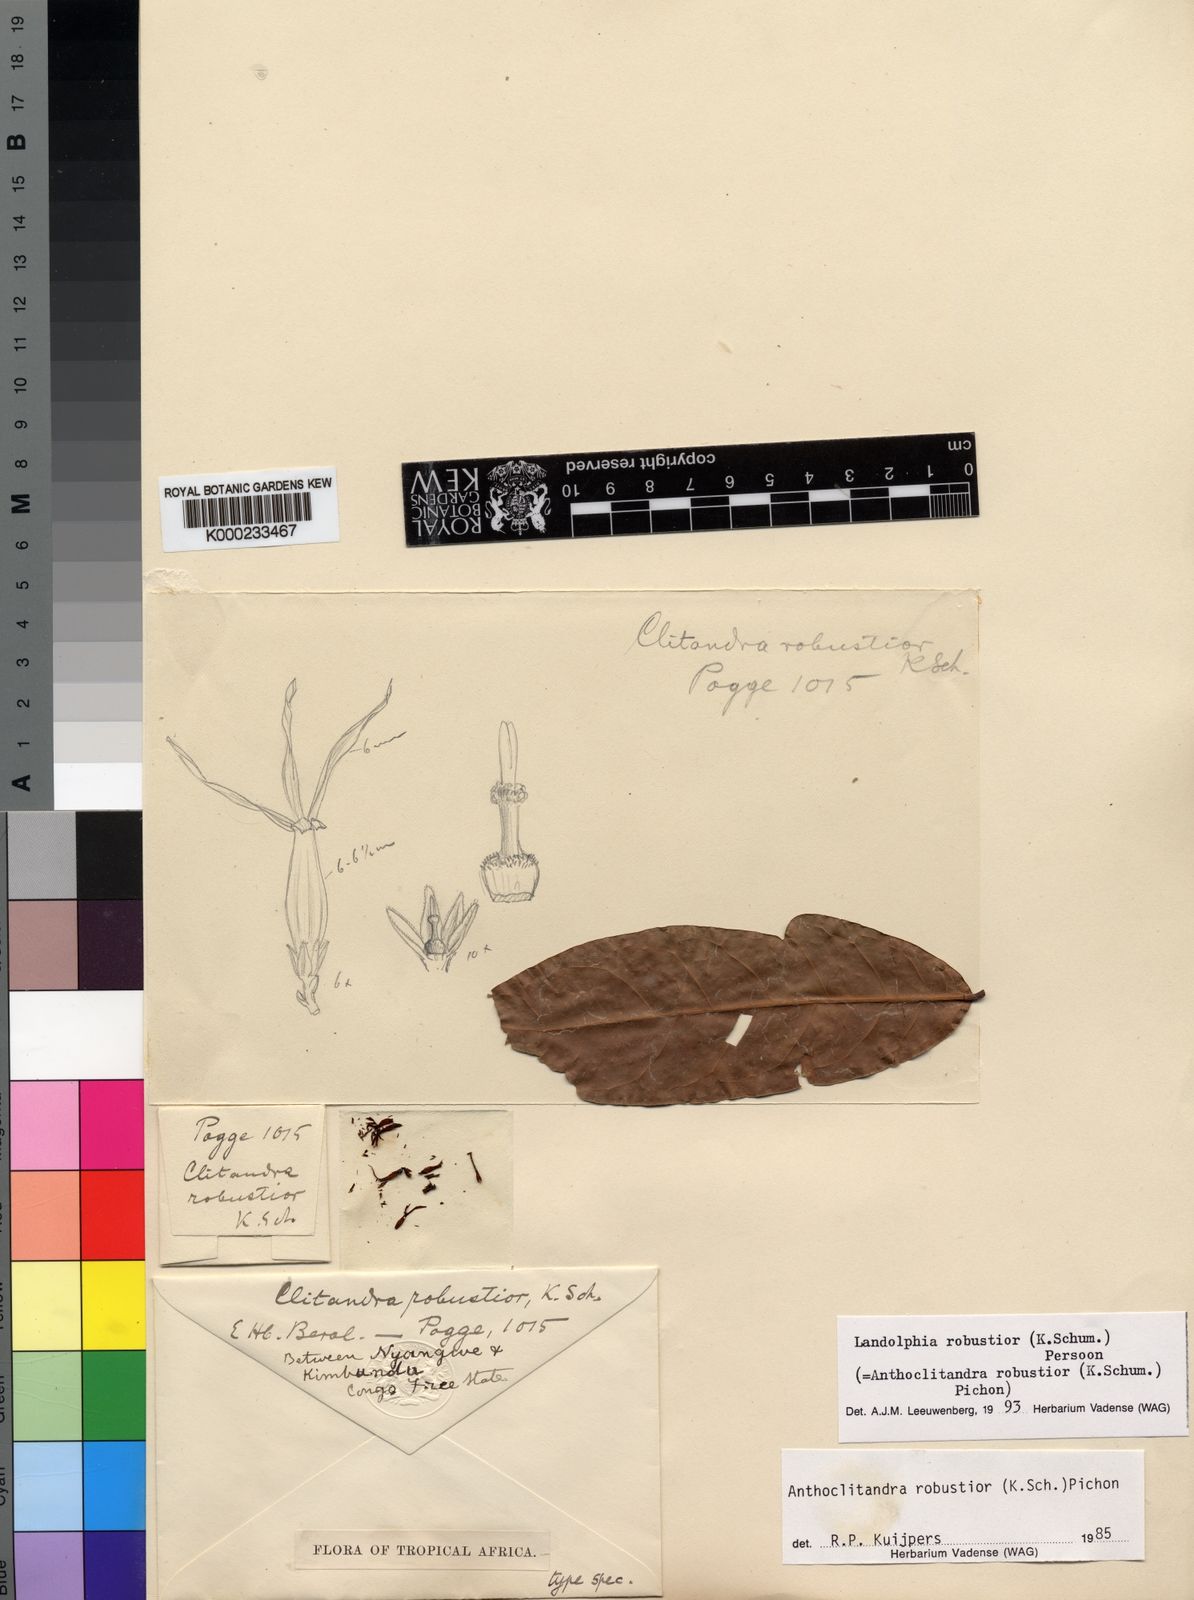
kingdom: Plantae
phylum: Tracheophyta
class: Magnoliopsida
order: Gentianales
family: Apocynaceae
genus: Landolphia
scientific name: Landolphia robustior
